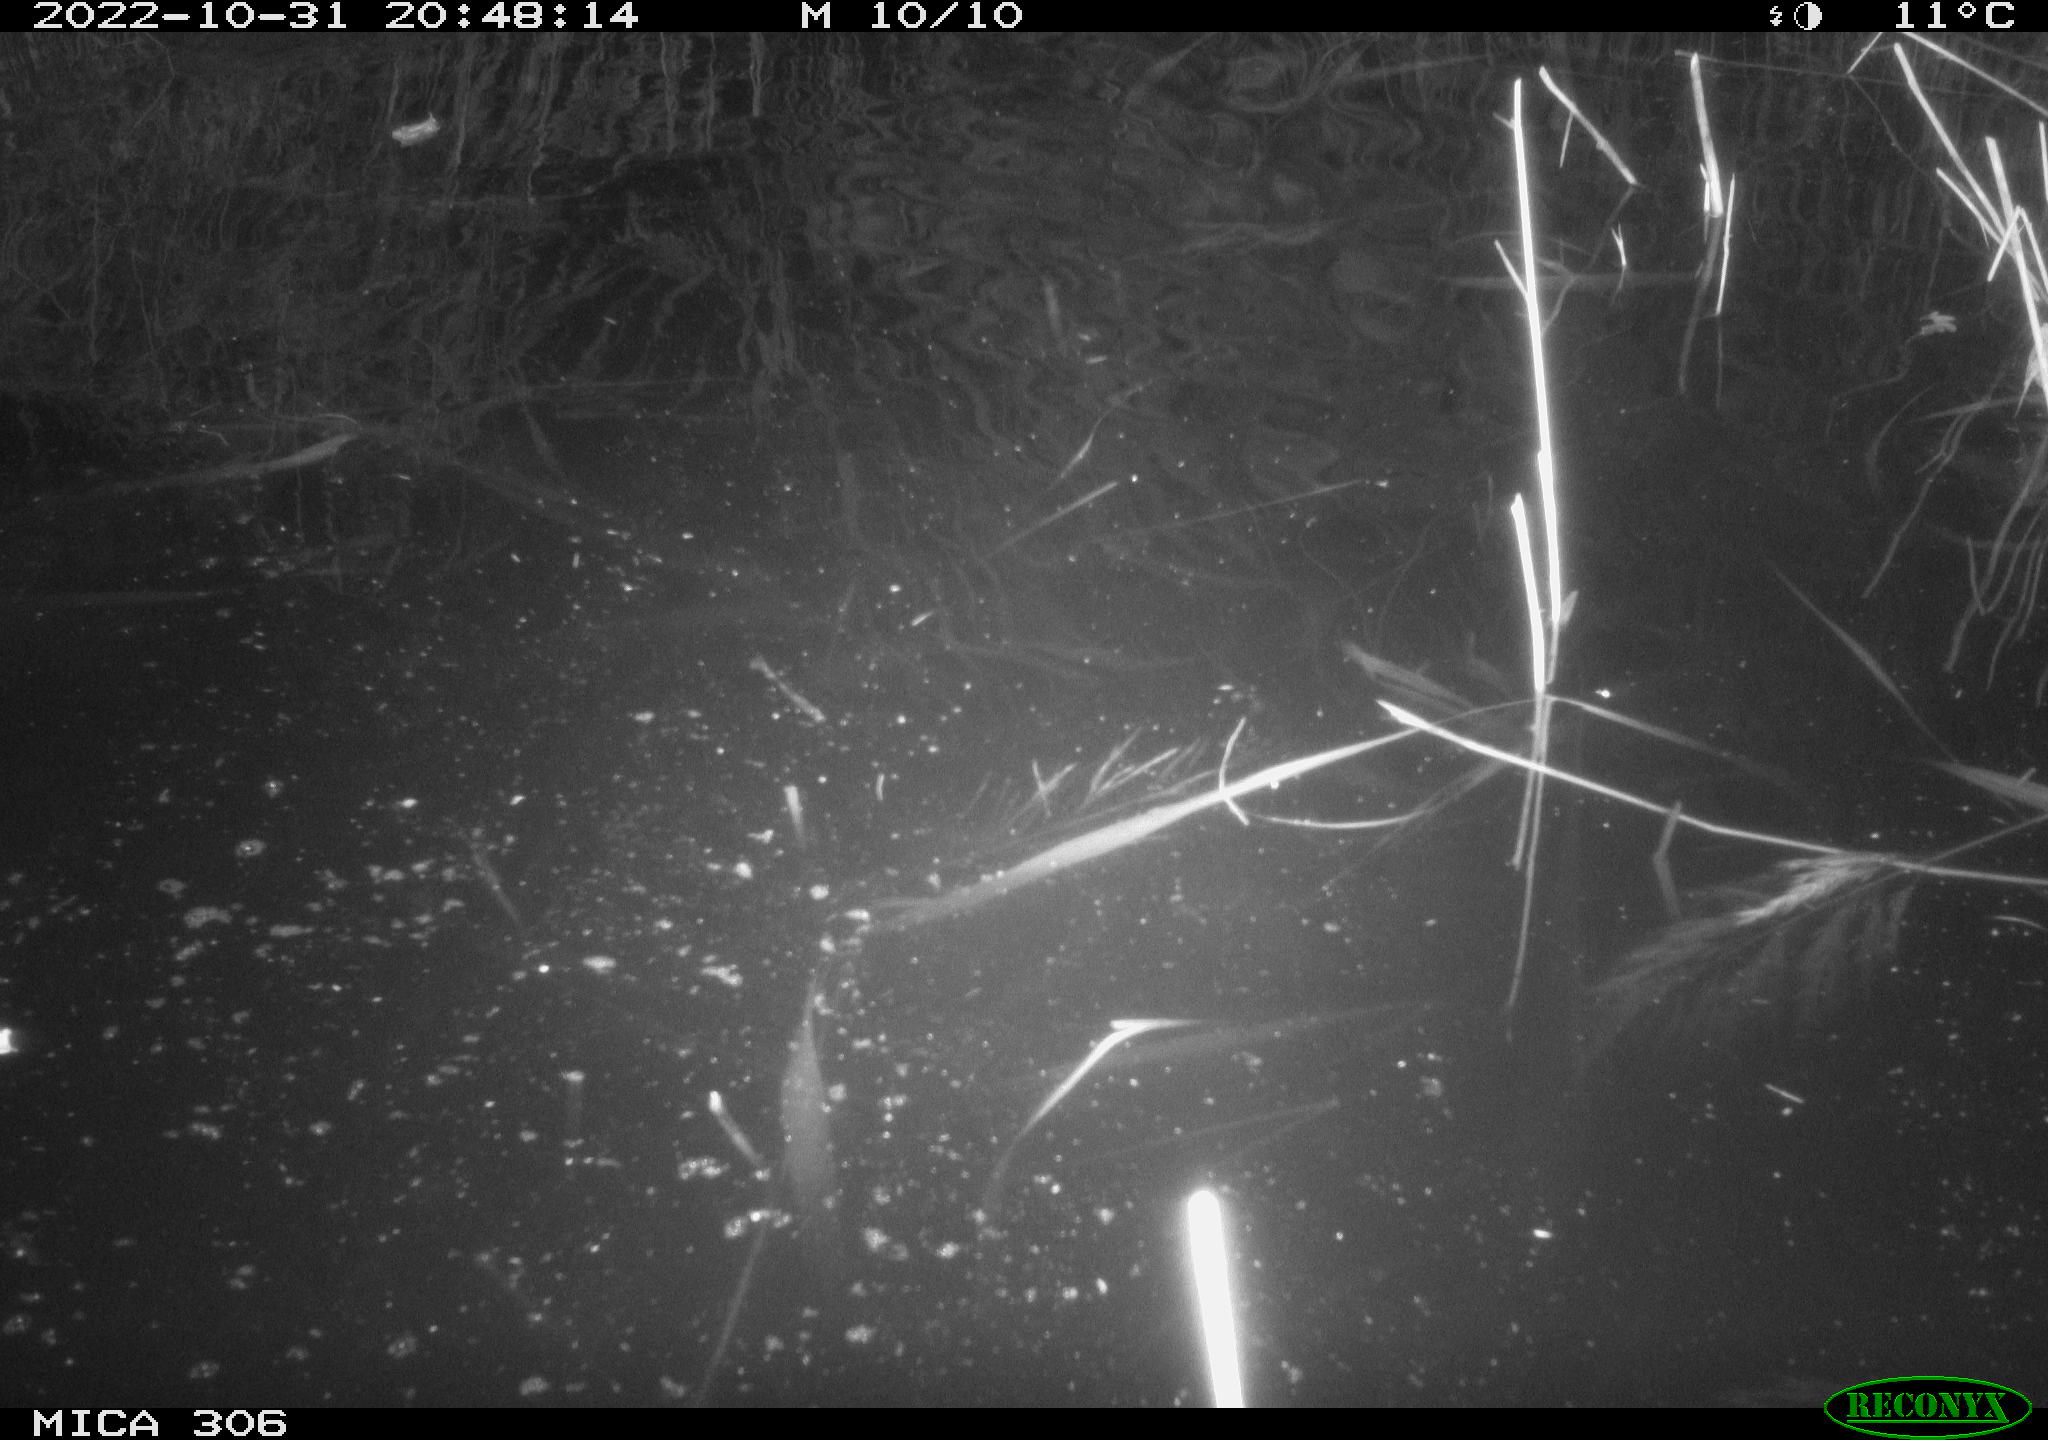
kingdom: Animalia
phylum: Chordata
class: Mammalia
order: Rodentia
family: Muridae
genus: Rattus
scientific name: Rattus norvegicus
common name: Brown rat
